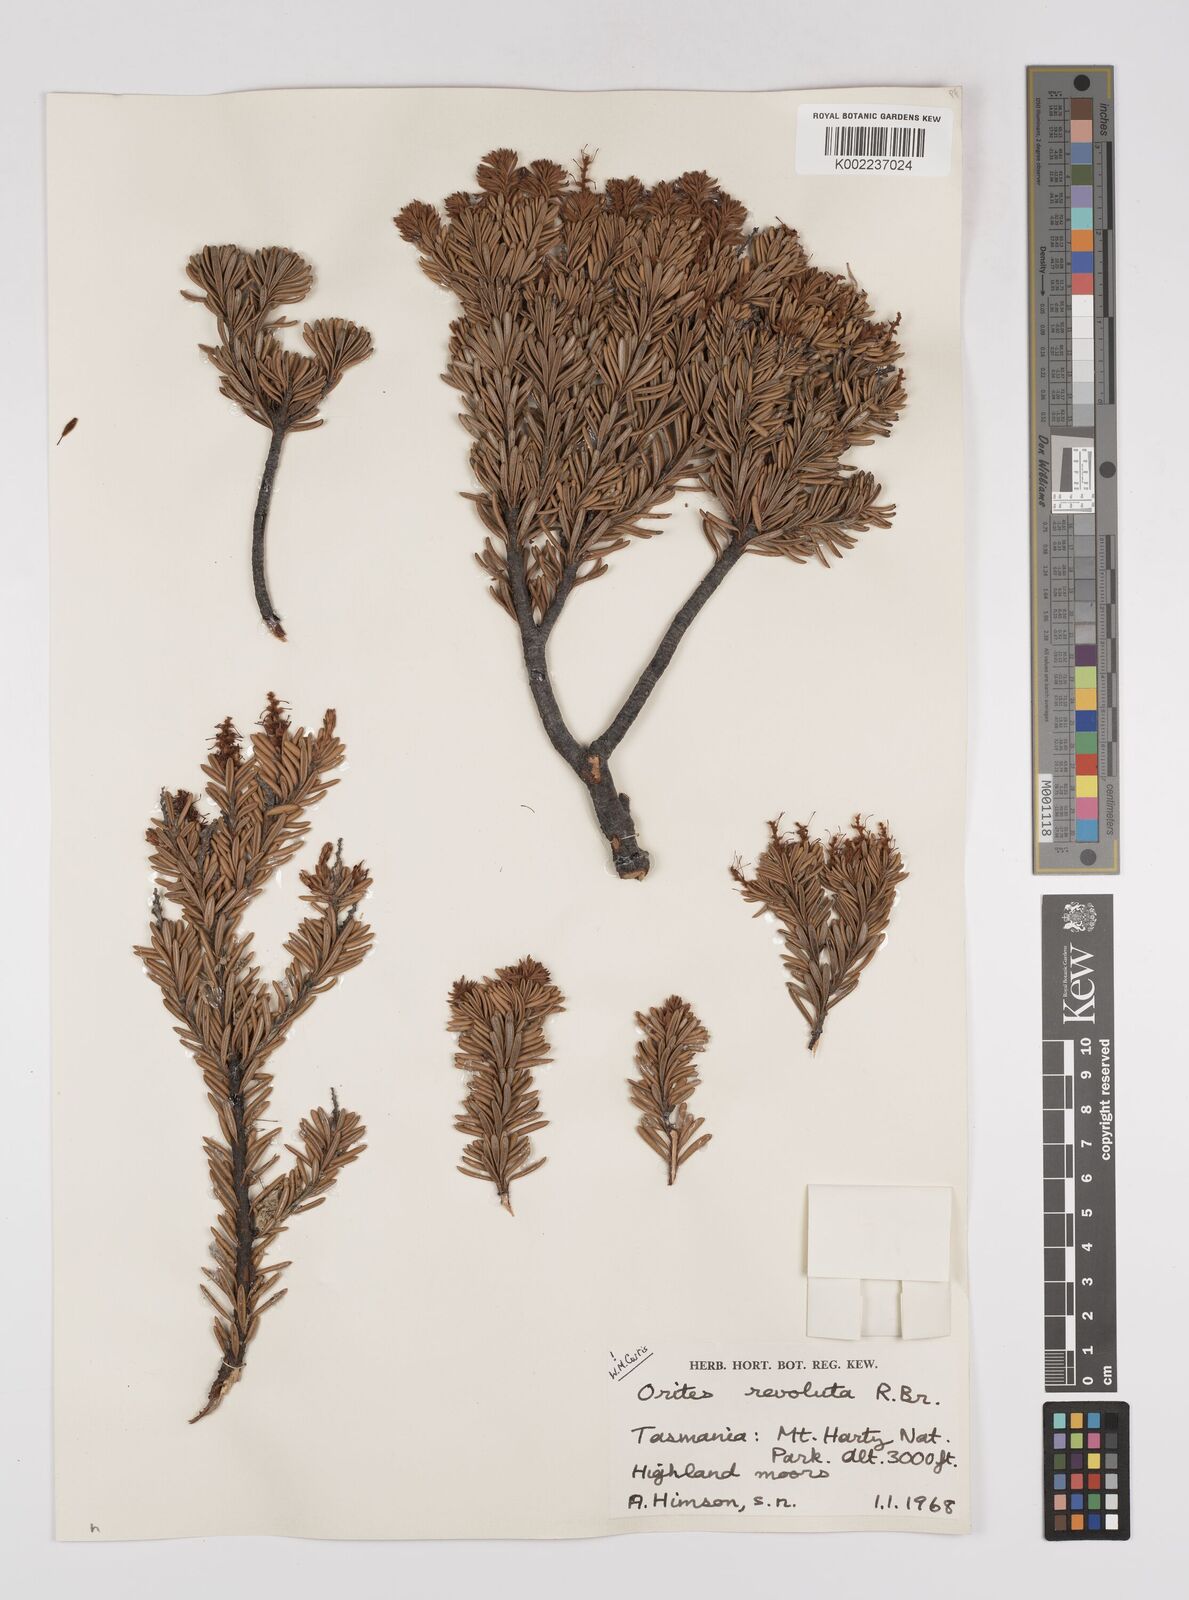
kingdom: Plantae
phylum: Tracheophyta
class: Magnoliopsida
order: Proteales
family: Proteaceae
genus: Orites
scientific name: Orites revolutus
